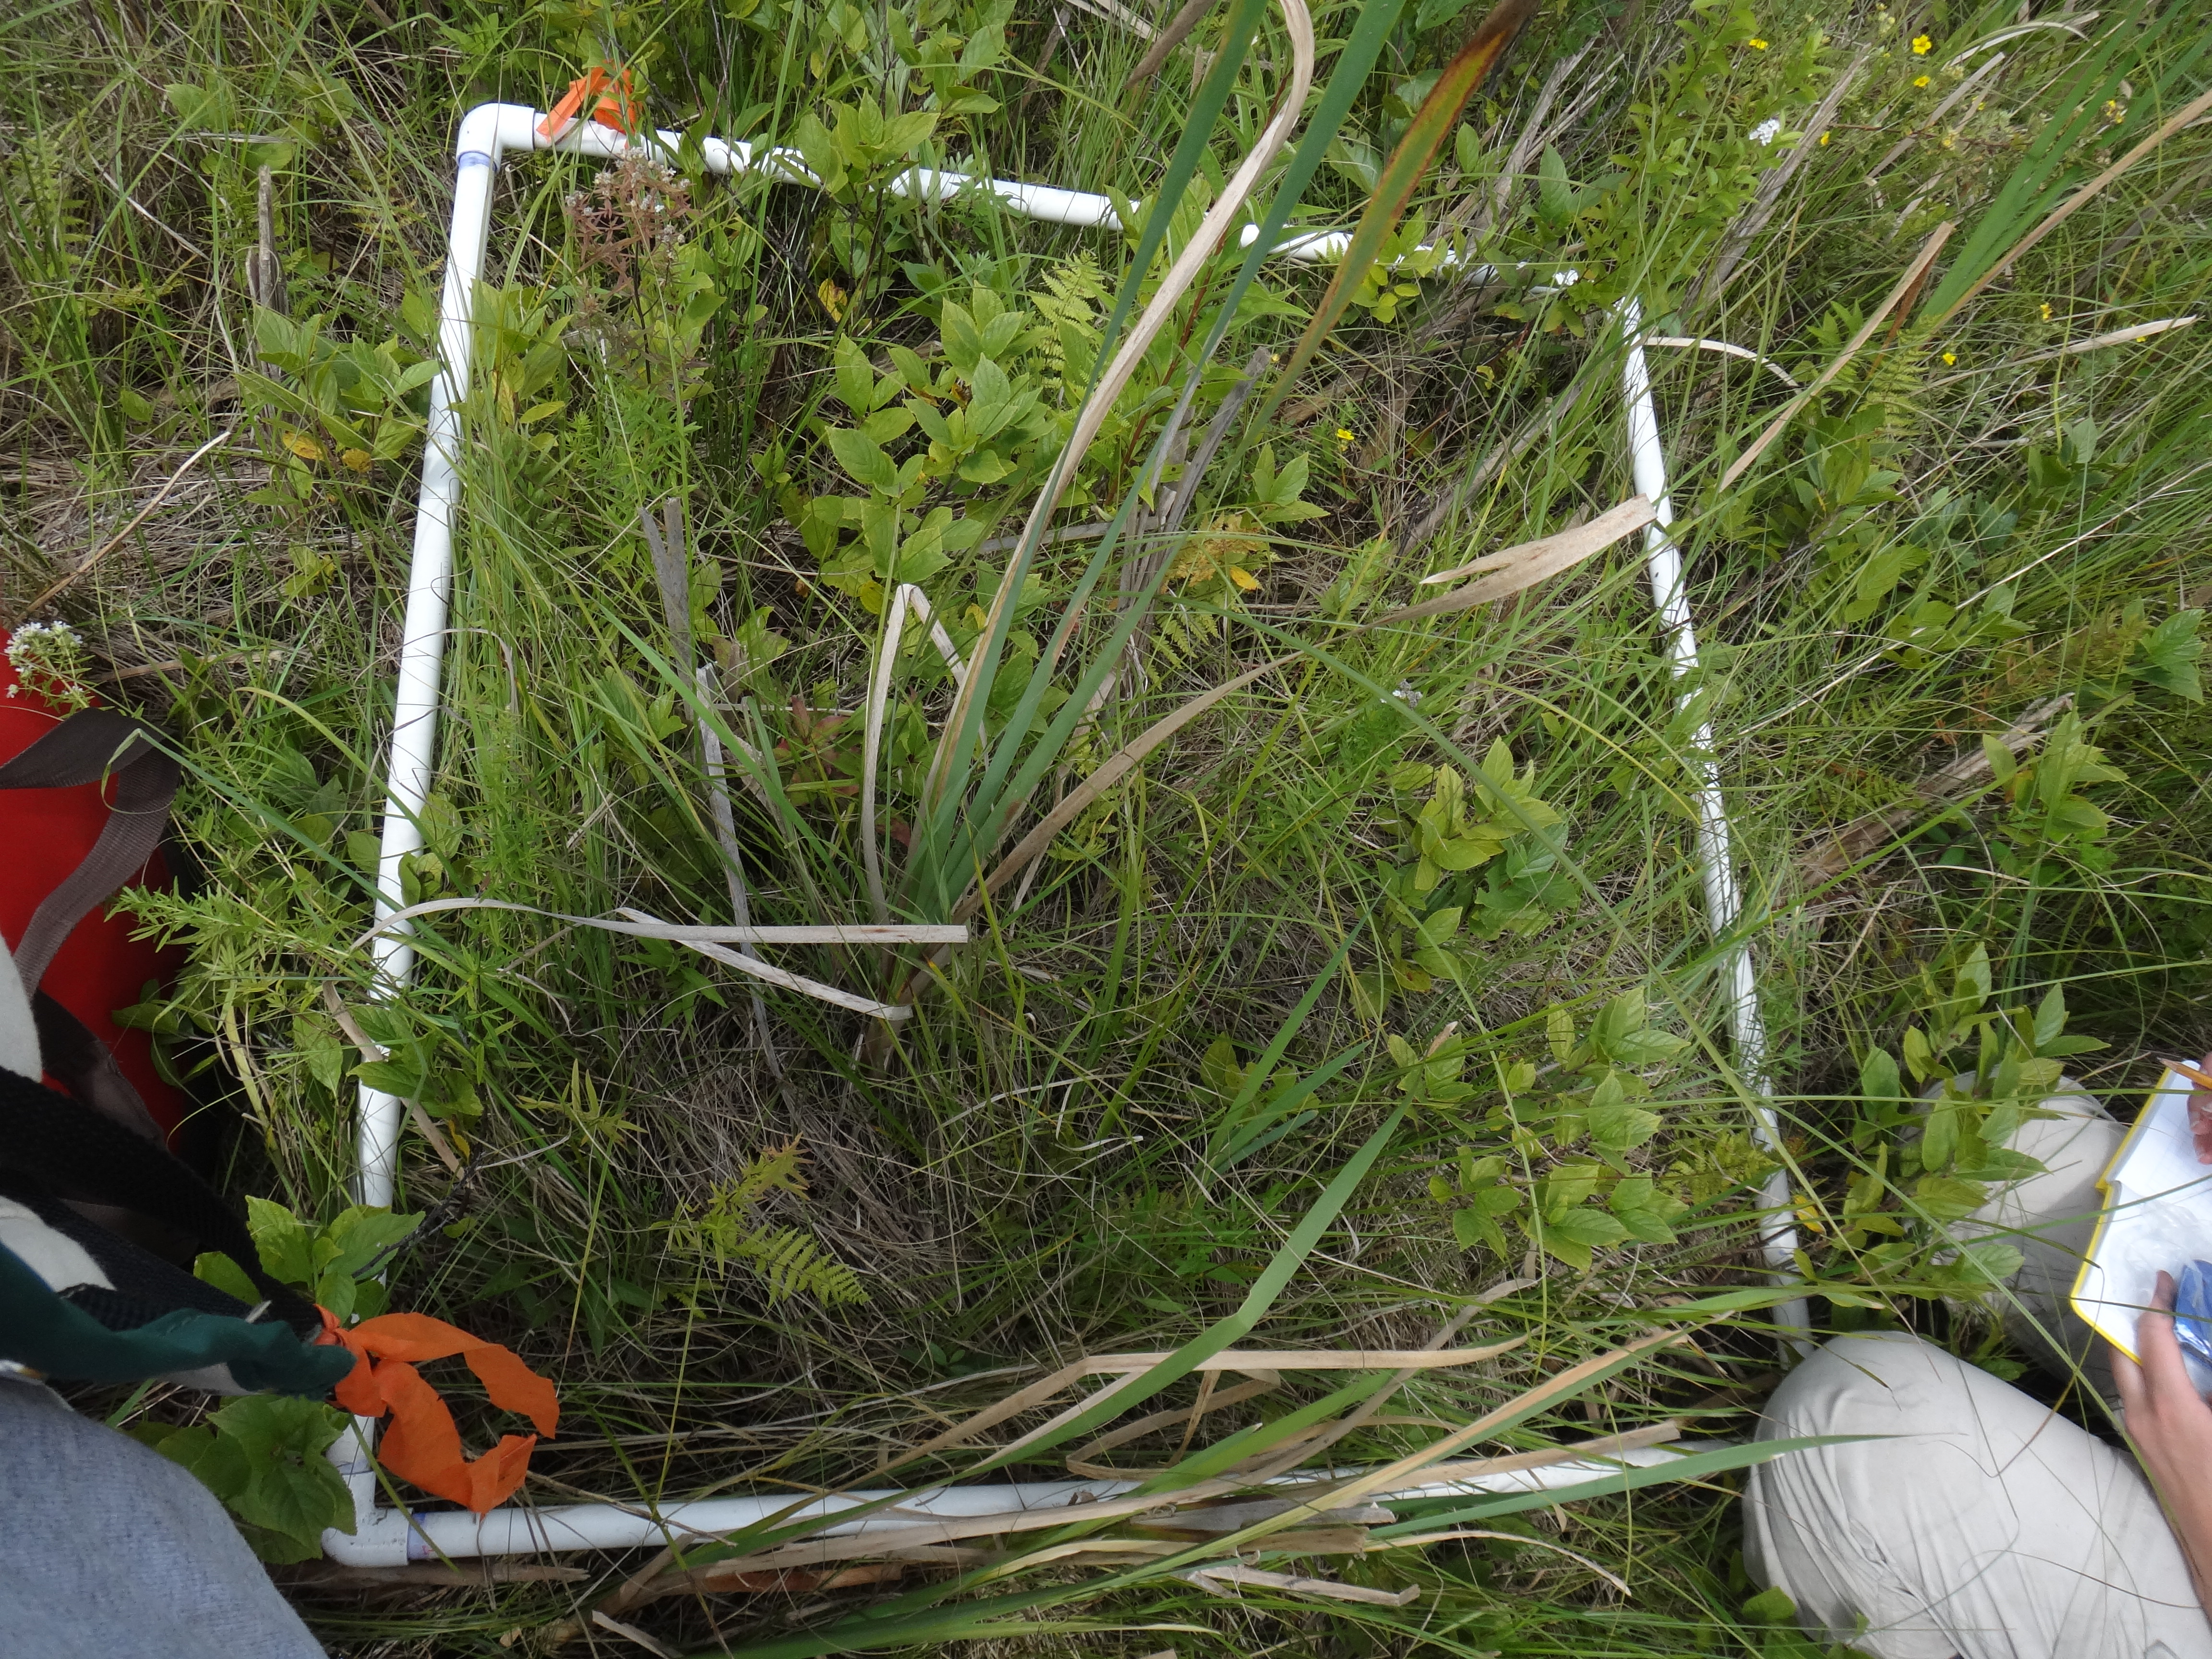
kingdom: Plantae
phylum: Tracheophyta
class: Liliopsida
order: Poales
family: Poaceae
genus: Muhlenbergia
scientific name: Muhlenbergia glomerata
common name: Bog muhly
